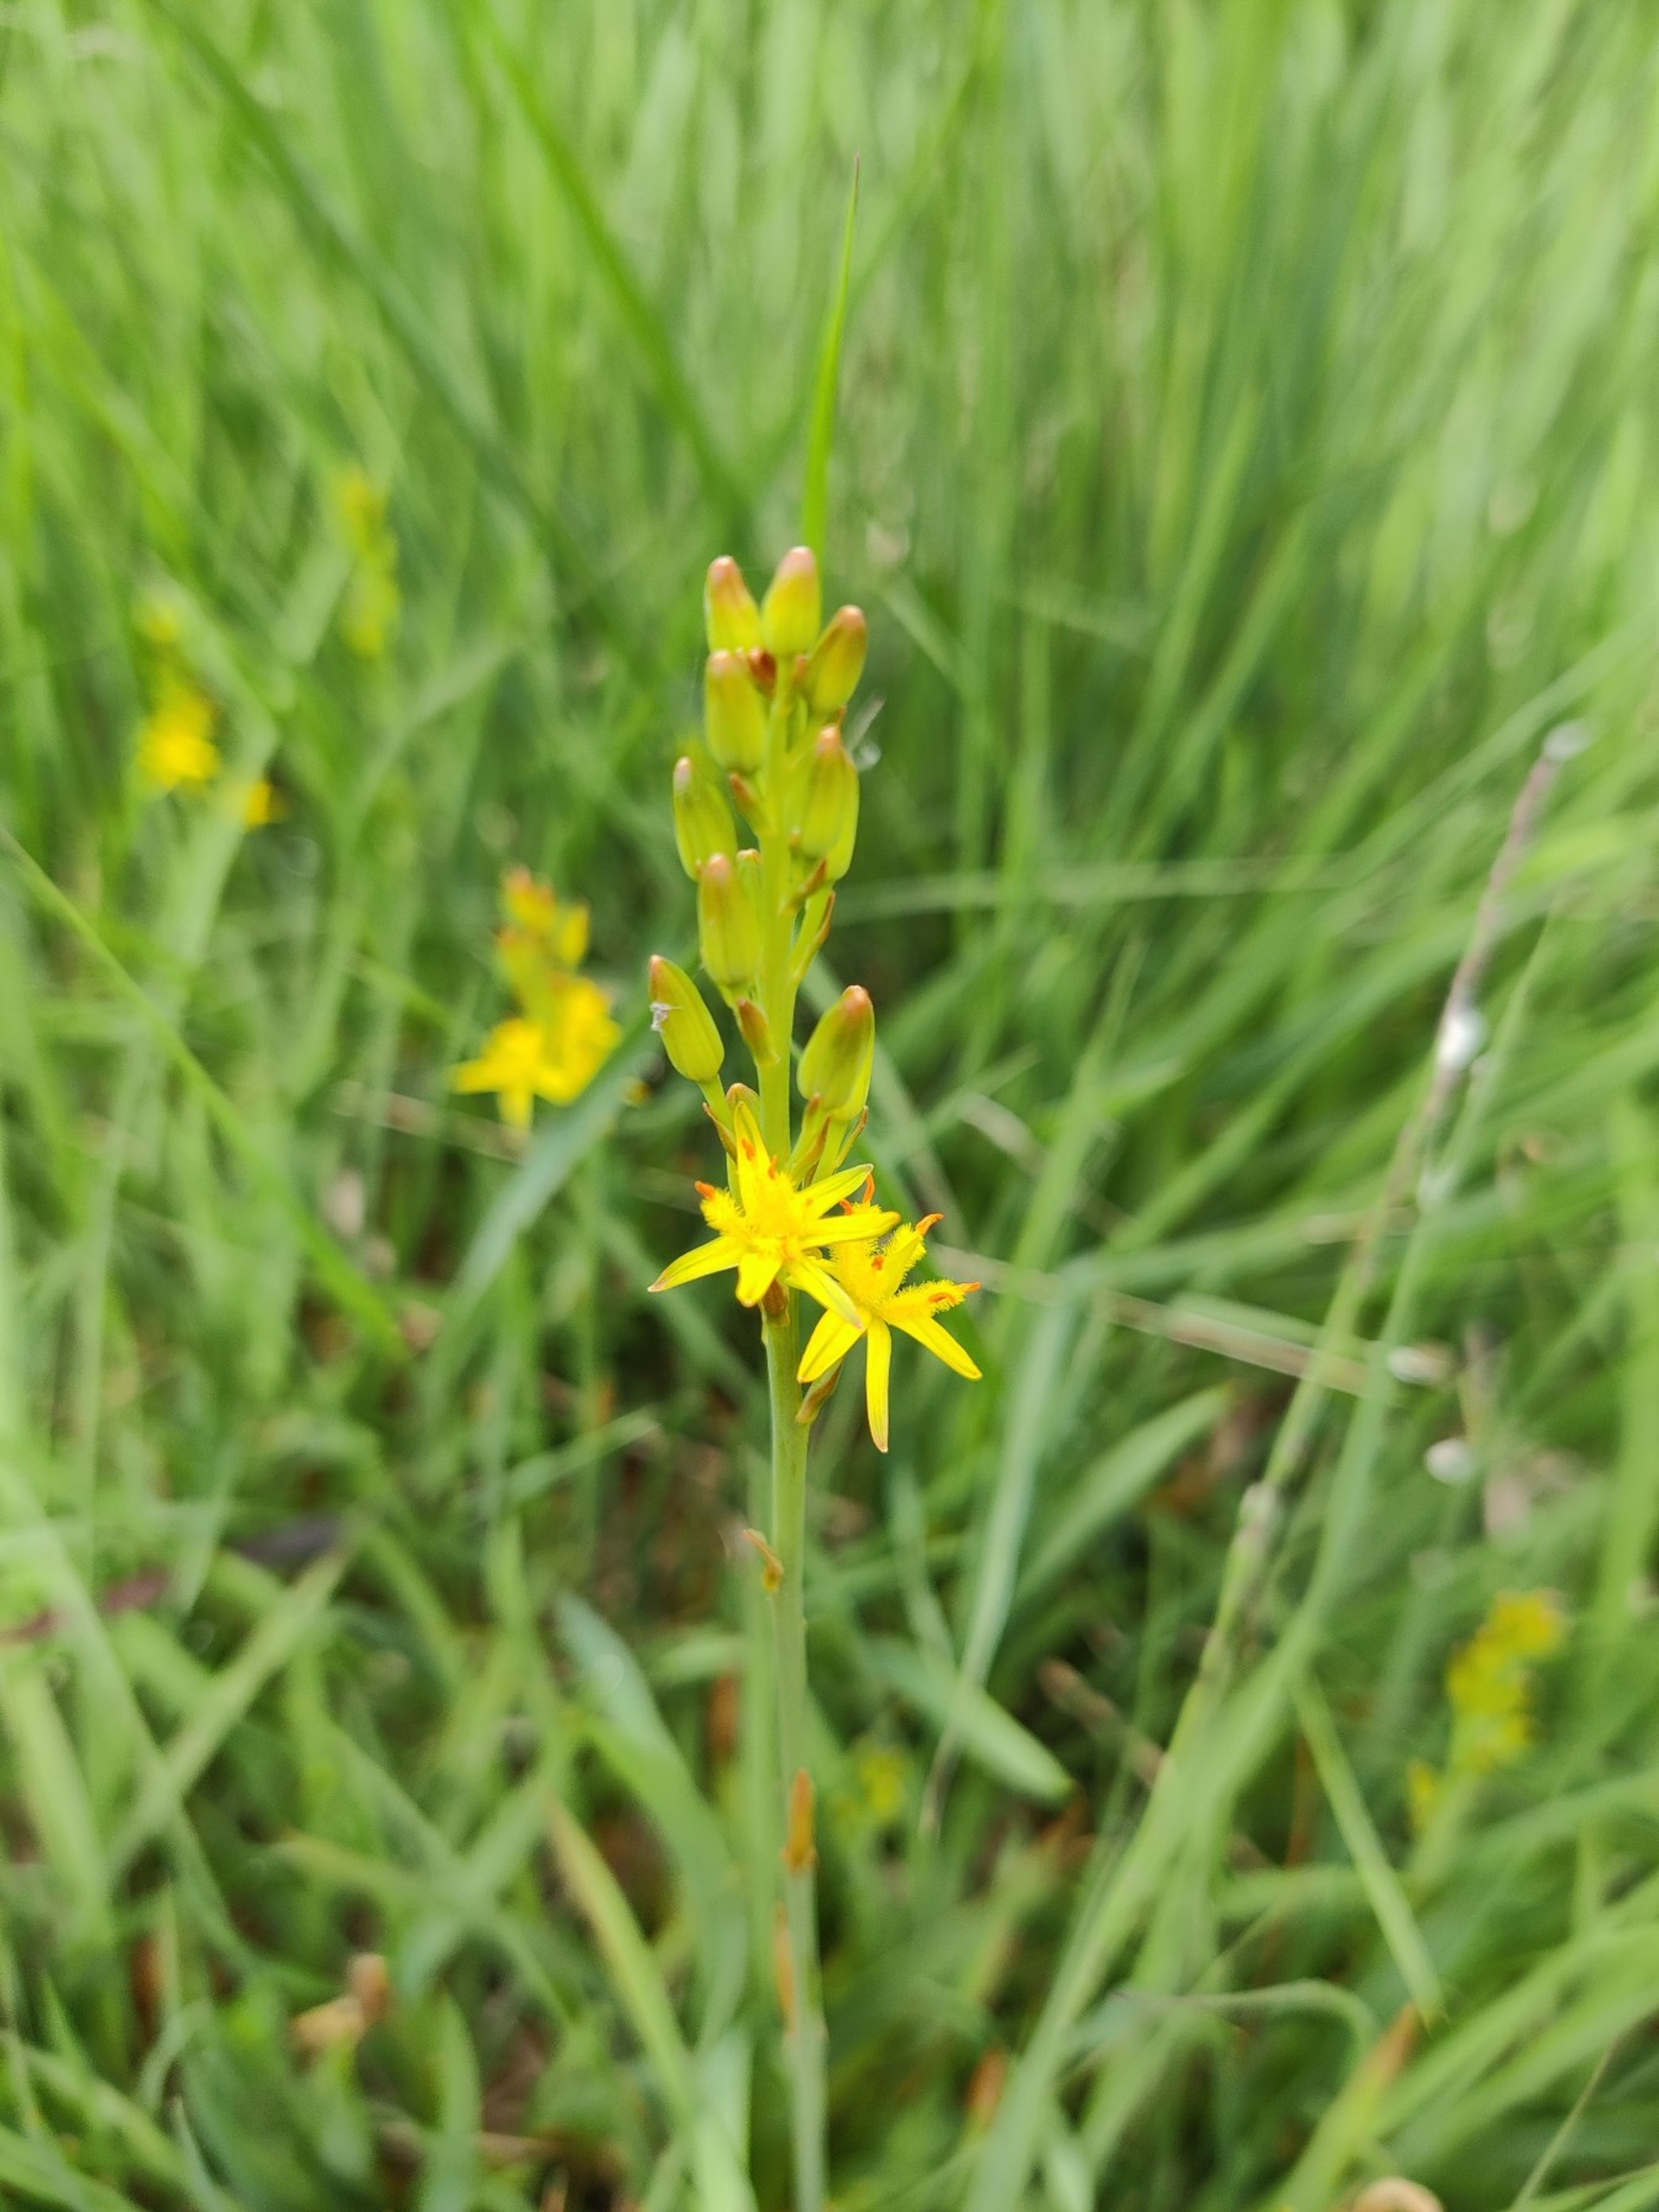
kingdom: Plantae
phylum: Tracheophyta
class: Liliopsida
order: Dioscoreales
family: Nartheciaceae
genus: Narthecium
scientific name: Narthecium ossifragum
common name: Benbræk
